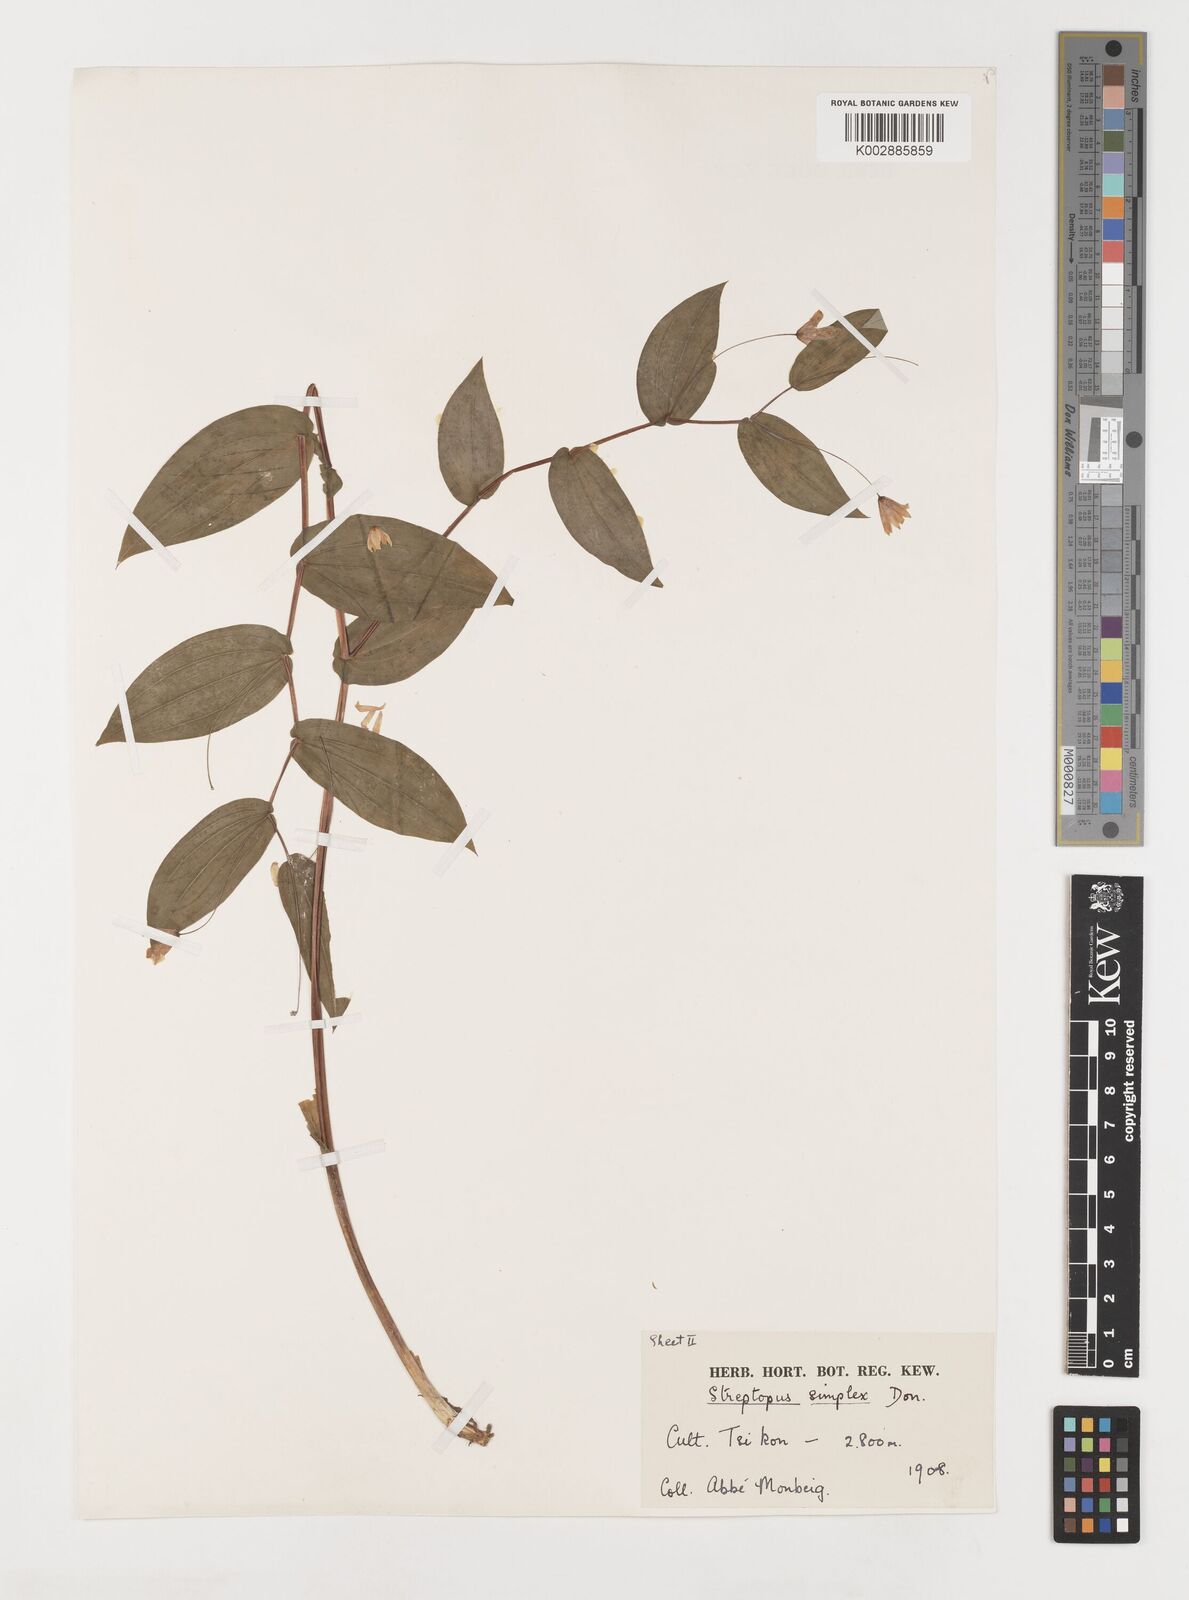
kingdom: Plantae
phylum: Tracheophyta
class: Liliopsida
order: Liliales
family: Liliaceae
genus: Streptopus
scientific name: Streptopus simplex
